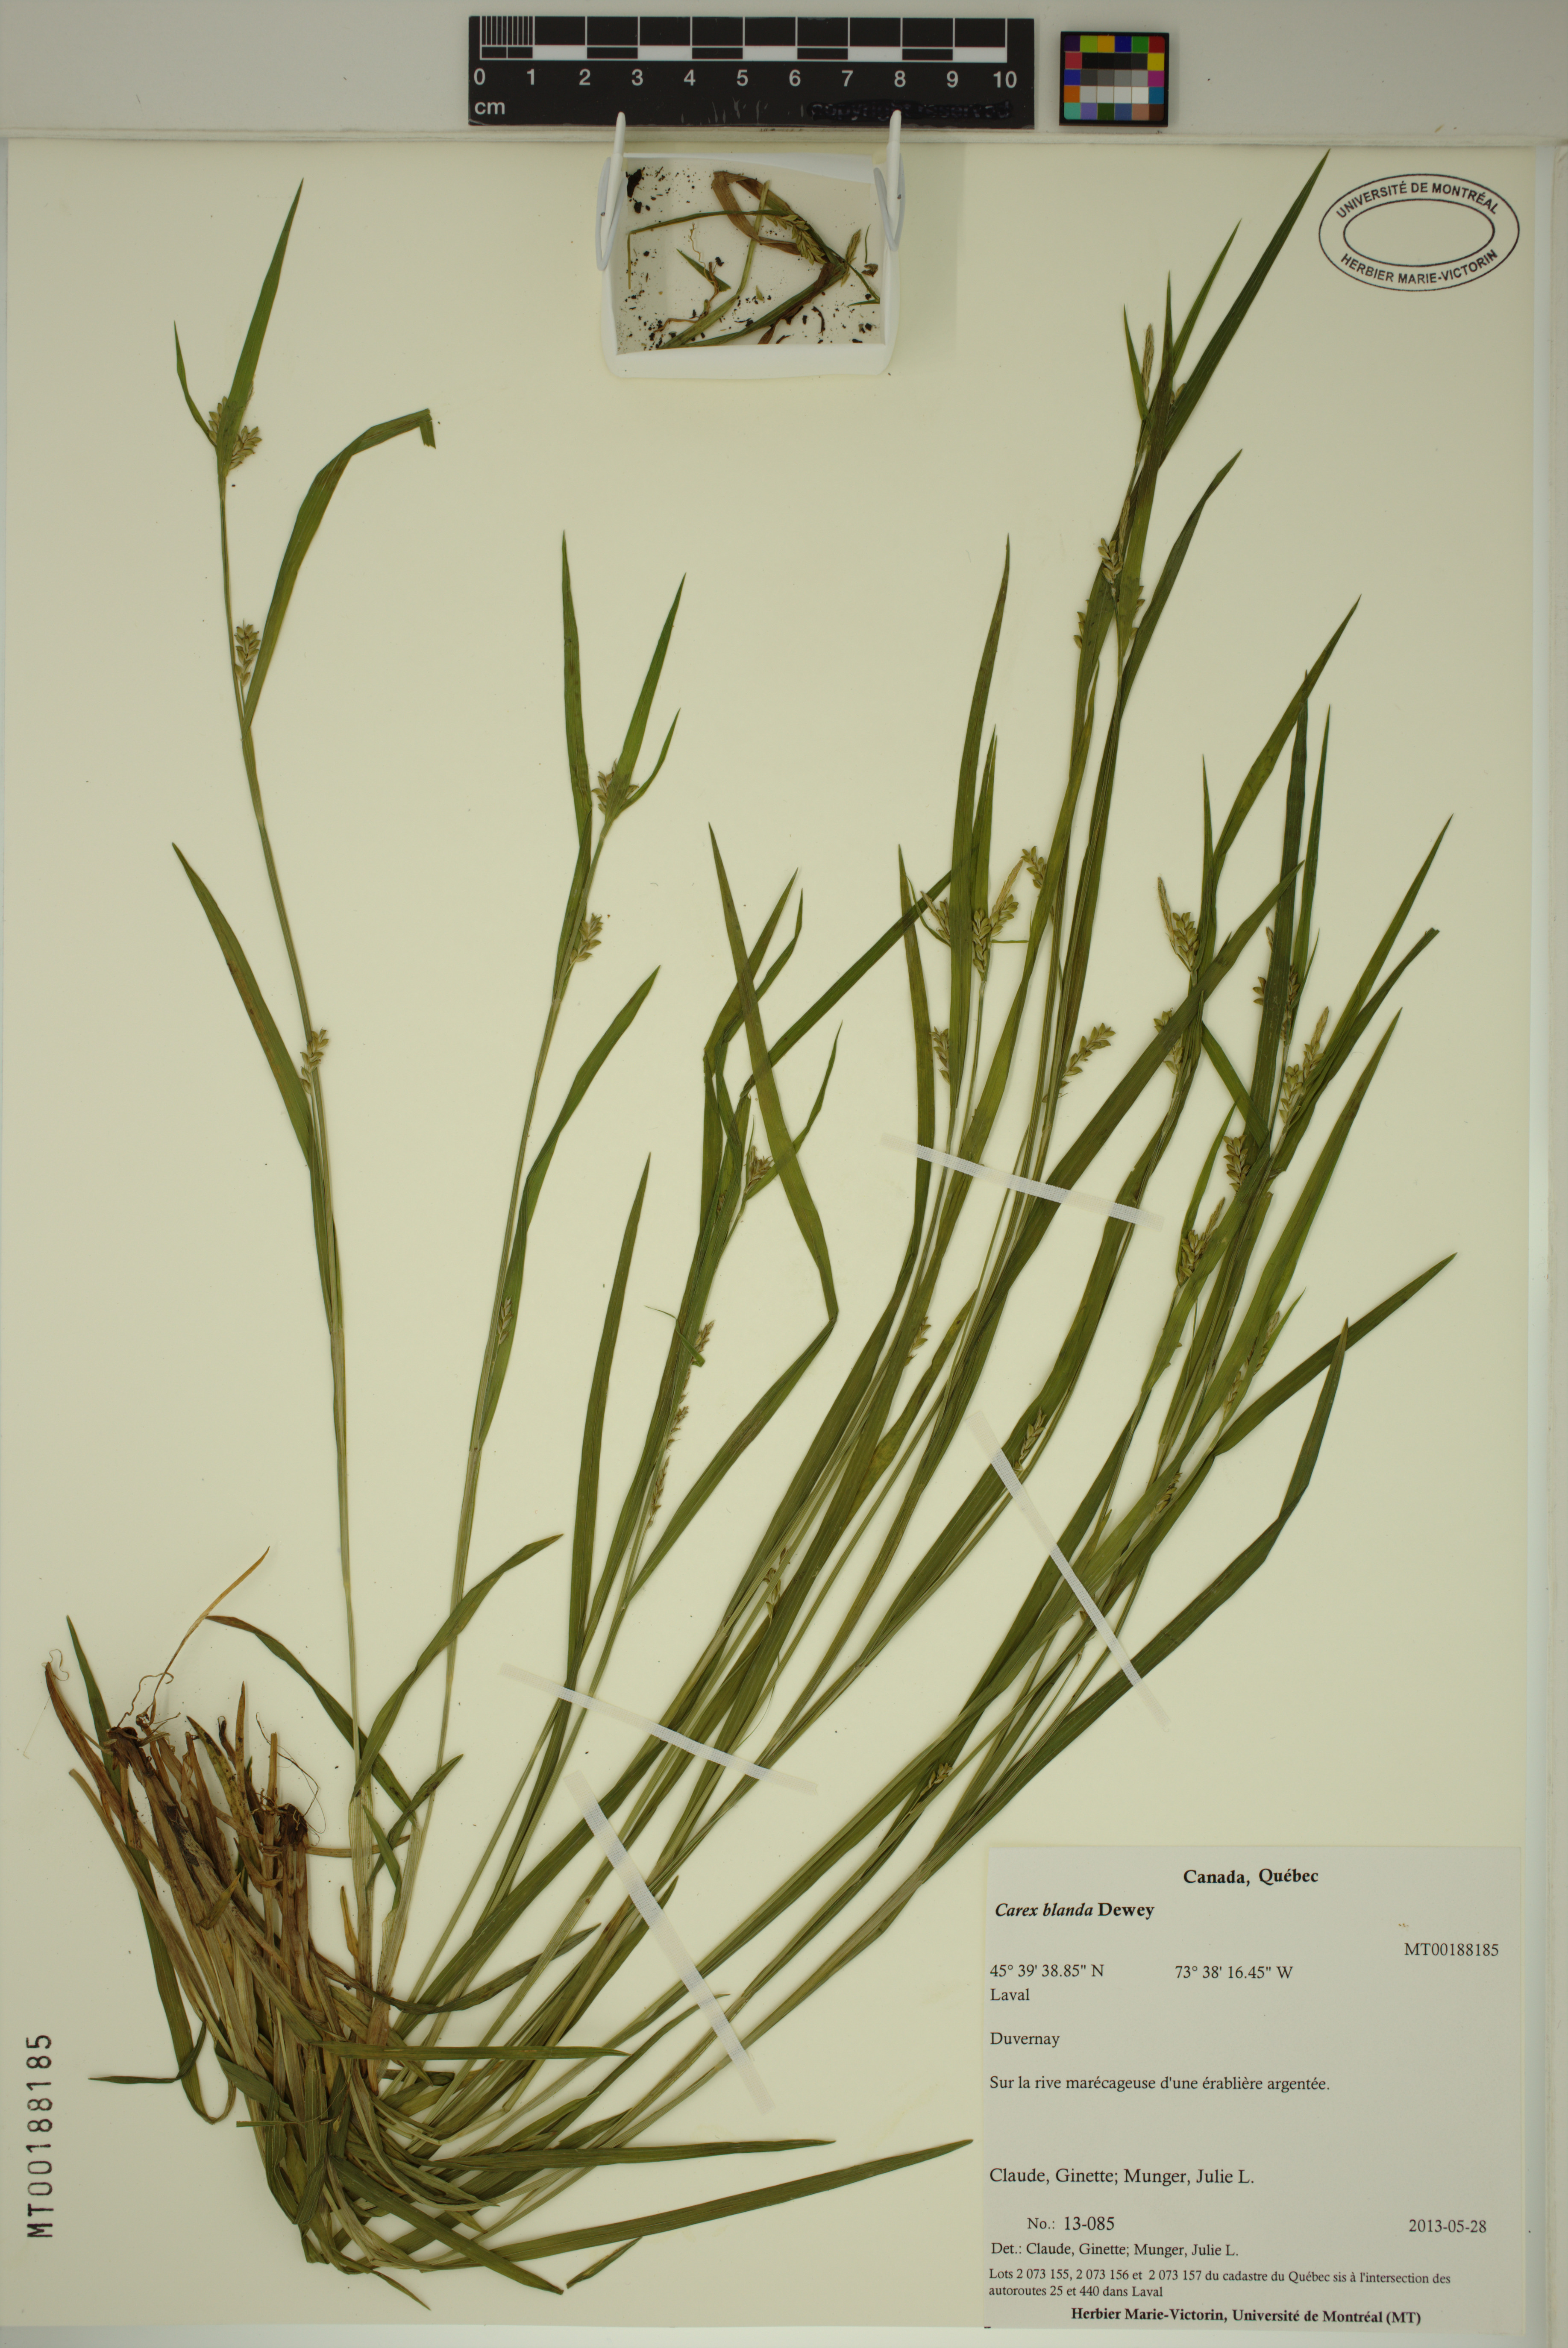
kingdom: Plantae
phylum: Tracheophyta
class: Liliopsida
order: Poales
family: Cyperaceae
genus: Carex
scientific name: Carex blanda
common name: Bland sedge
